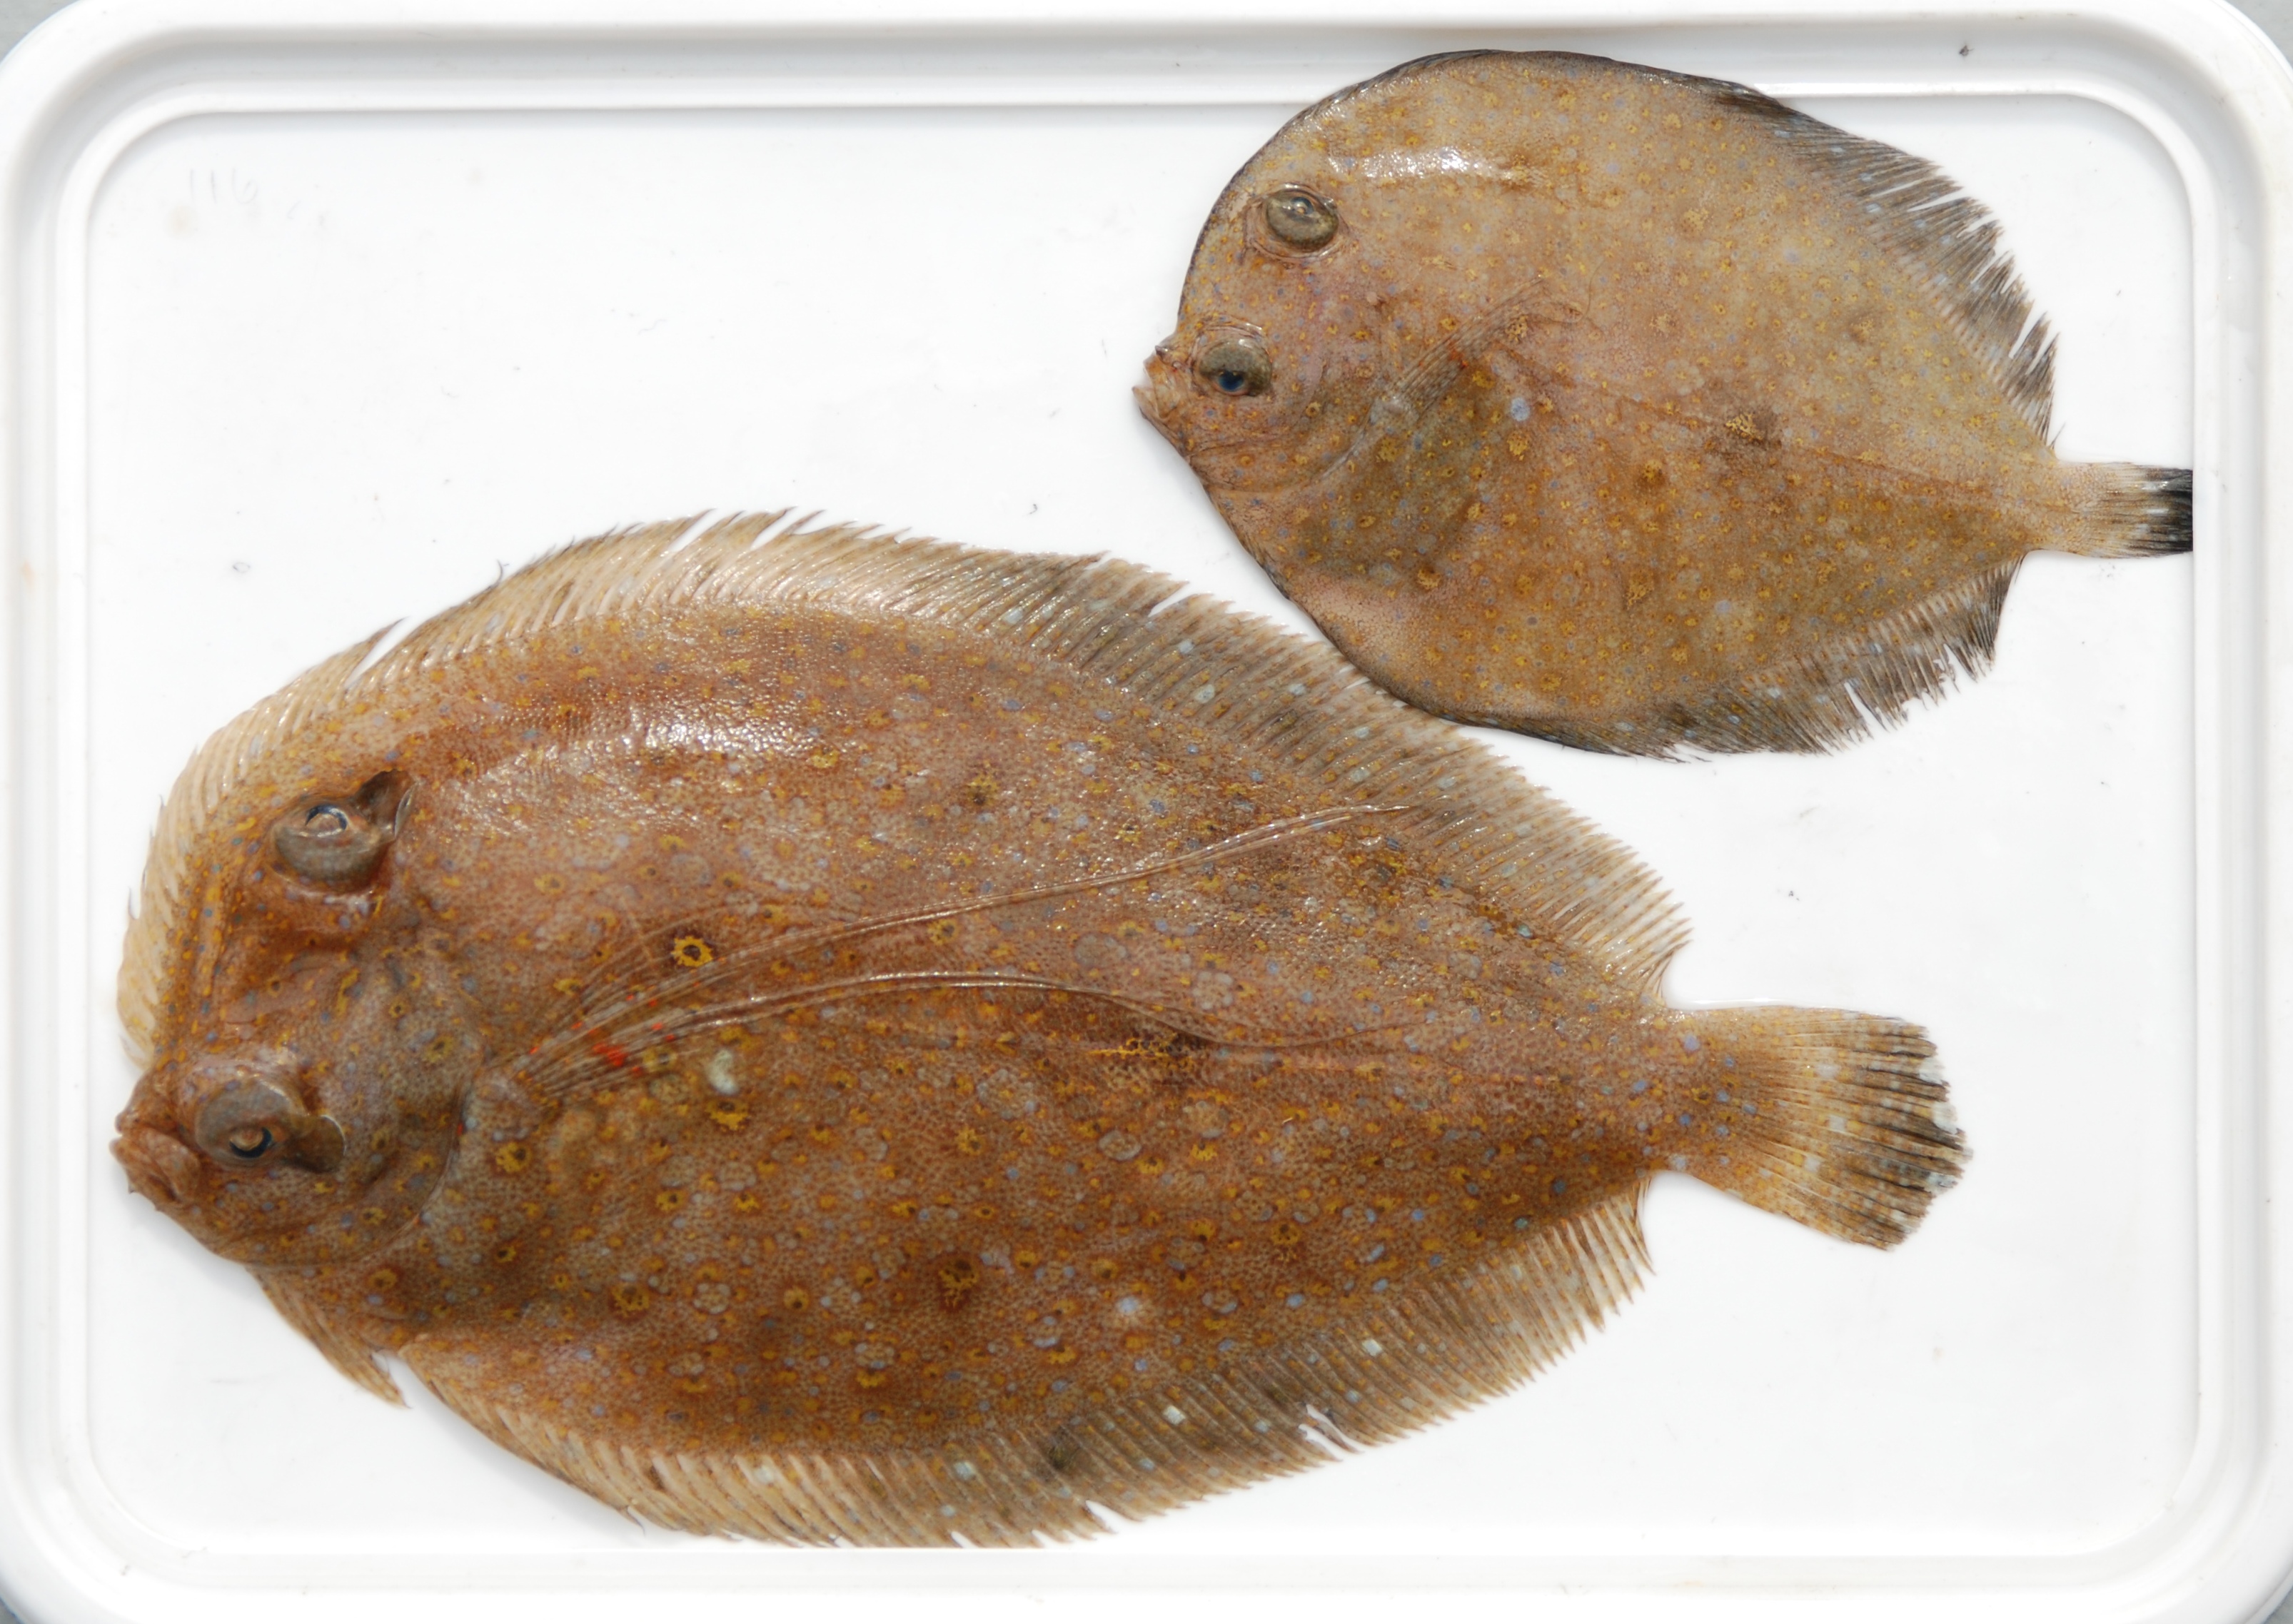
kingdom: Animalia
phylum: Chordata
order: Pleuronectiformes
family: Paralichthyidae
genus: Pseudorhombus
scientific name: Pseudorhombus elevatus
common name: Deep flounder
